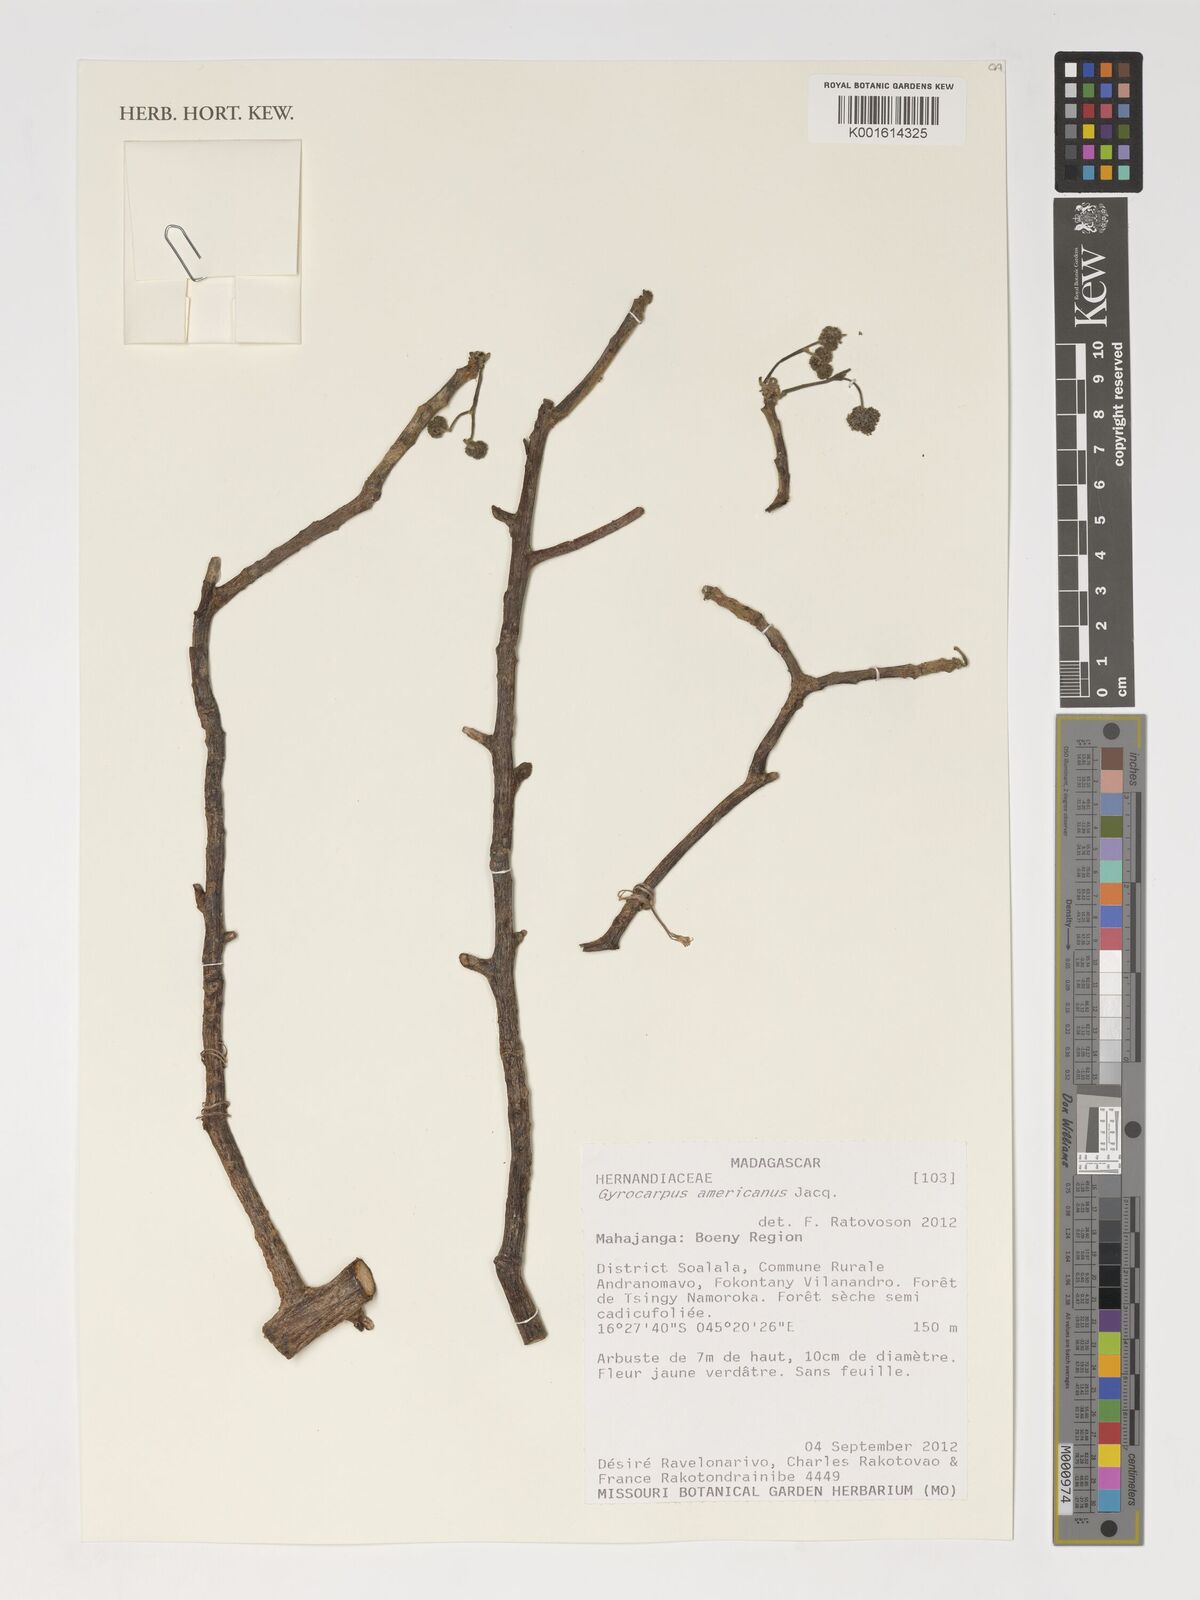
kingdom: Plantae
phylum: Tracheophyta
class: Magnoliopsida
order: Laurales
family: Hernandiaceae
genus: Gyrocarpus
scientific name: Gyrocarpus americanus
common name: Gyro damson
